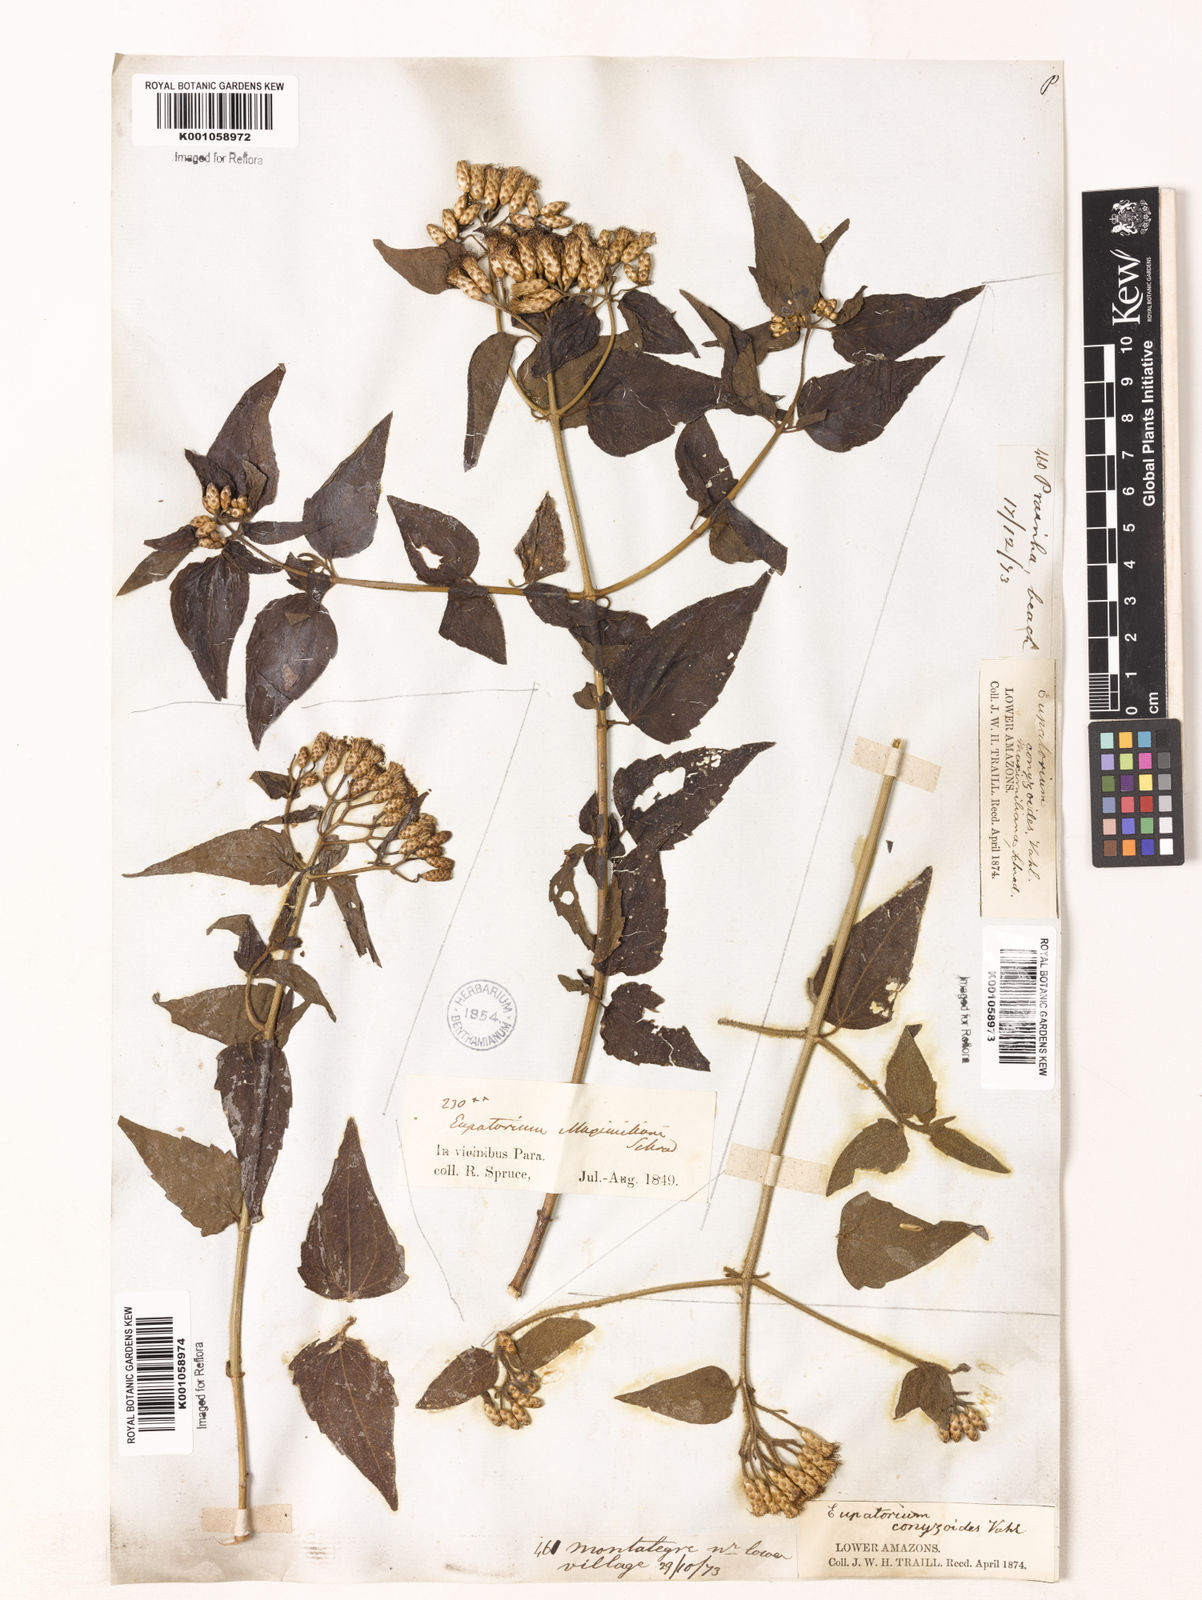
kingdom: Plantae
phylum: Tracheophyta
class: Magnoliopsida
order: Asterales
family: Asteraceae
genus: Chromolaena
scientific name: Chromolaena maximiliani
